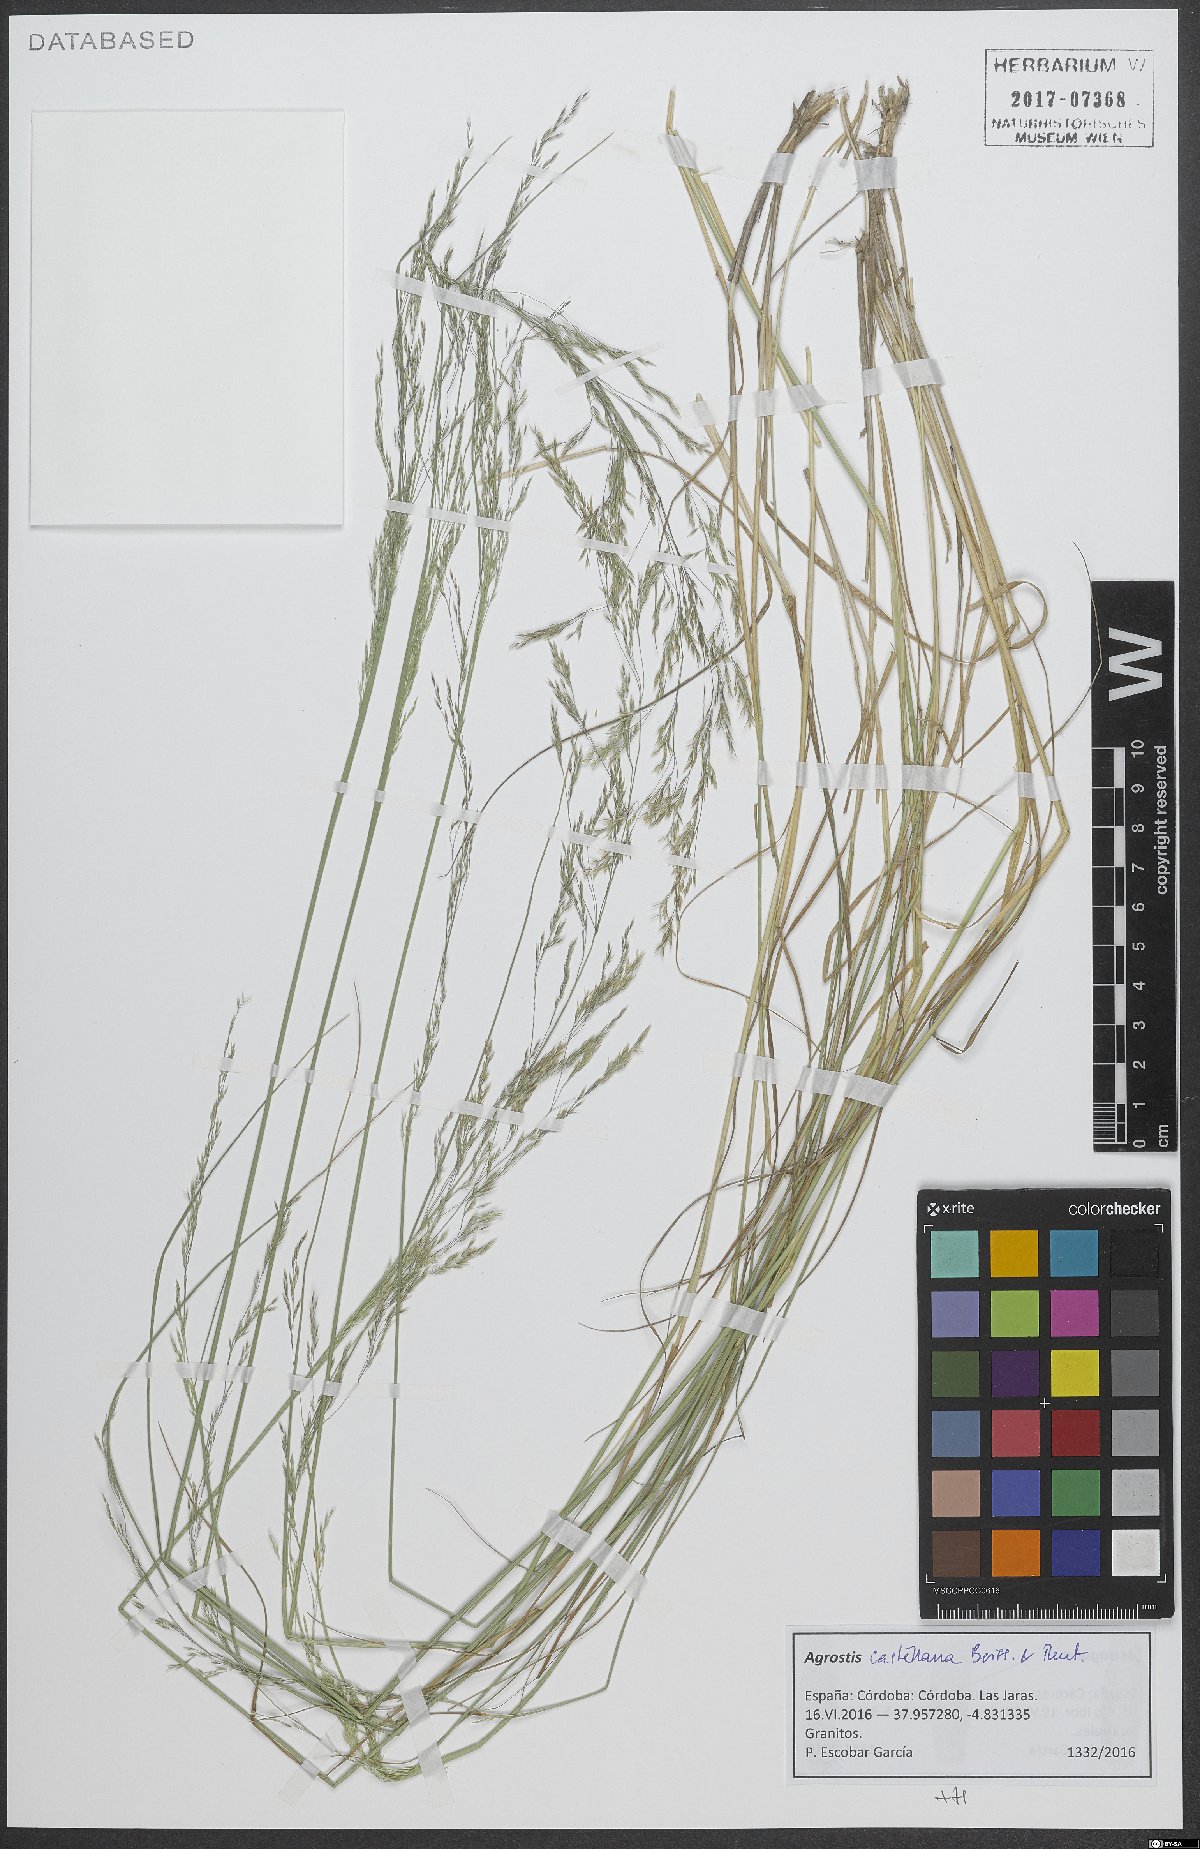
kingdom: Plantae
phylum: Tracheophyta
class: Liliopsida
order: Poales
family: Poaceae
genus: Agrostis
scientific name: Agrostis castellana
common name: Highland bent
